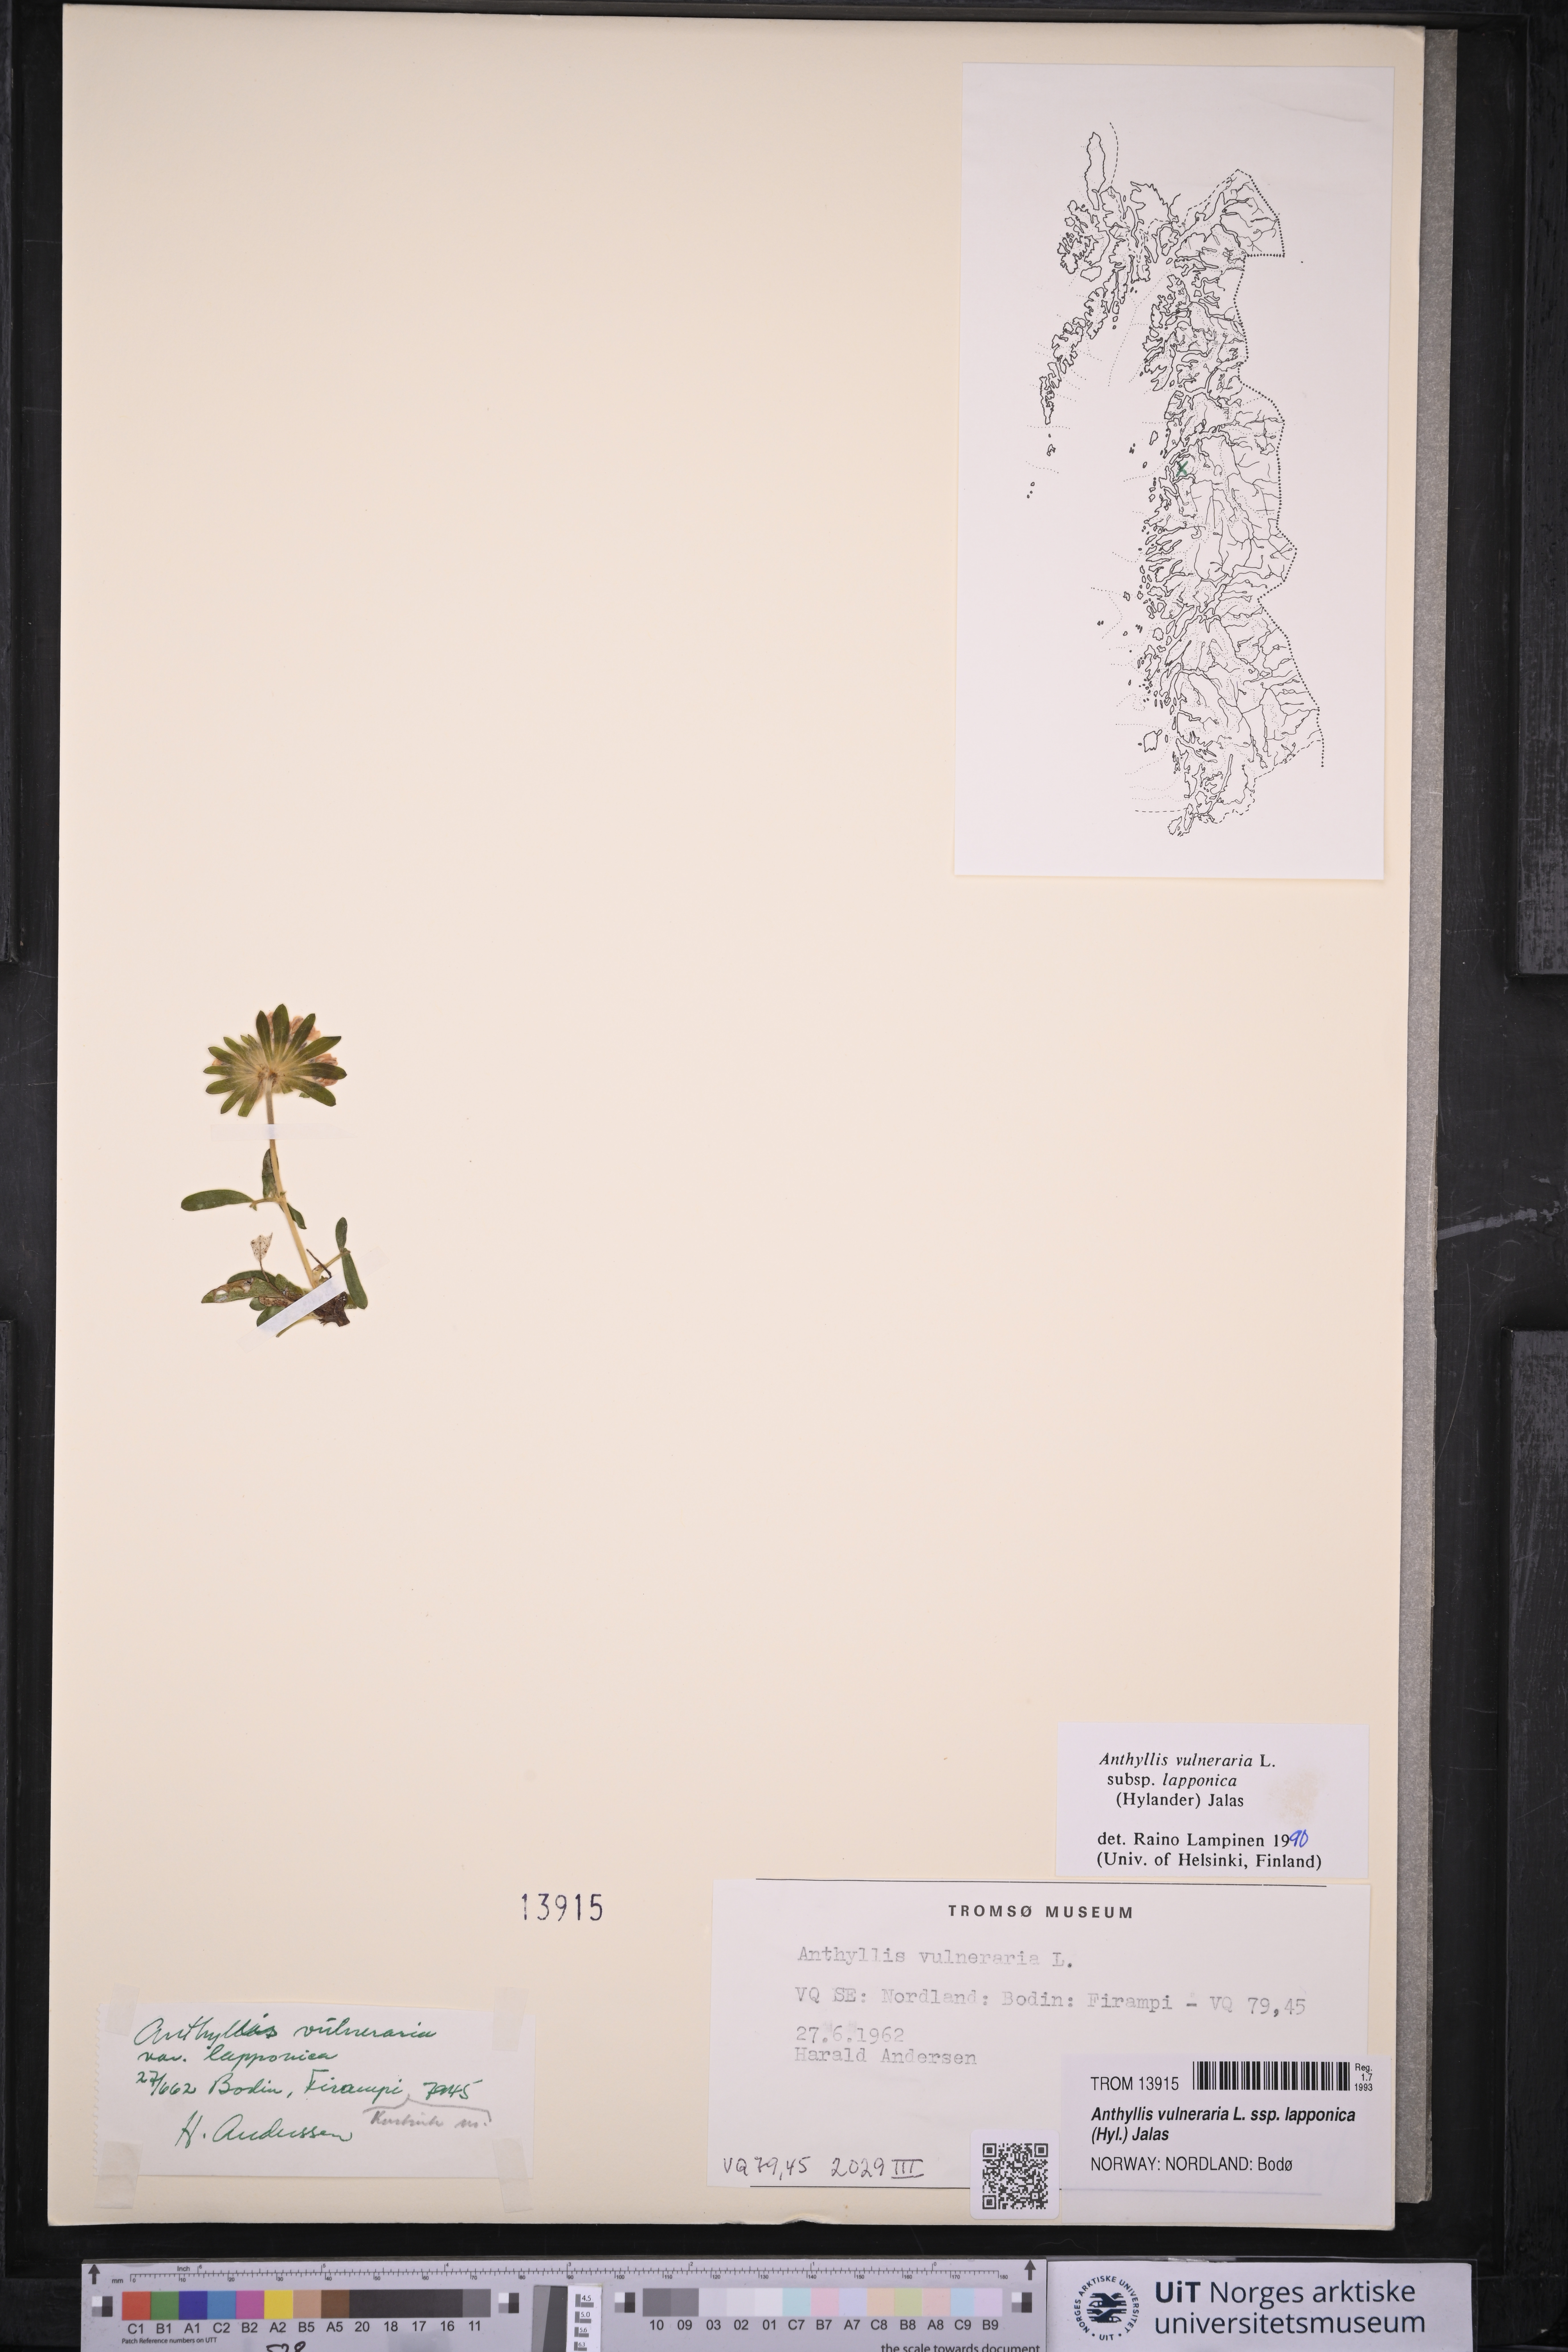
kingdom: Plantae
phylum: Tracheophyta
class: Liliopsida
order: Poales
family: Poaceae
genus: Koeleria
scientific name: Koeleria subalpestris
